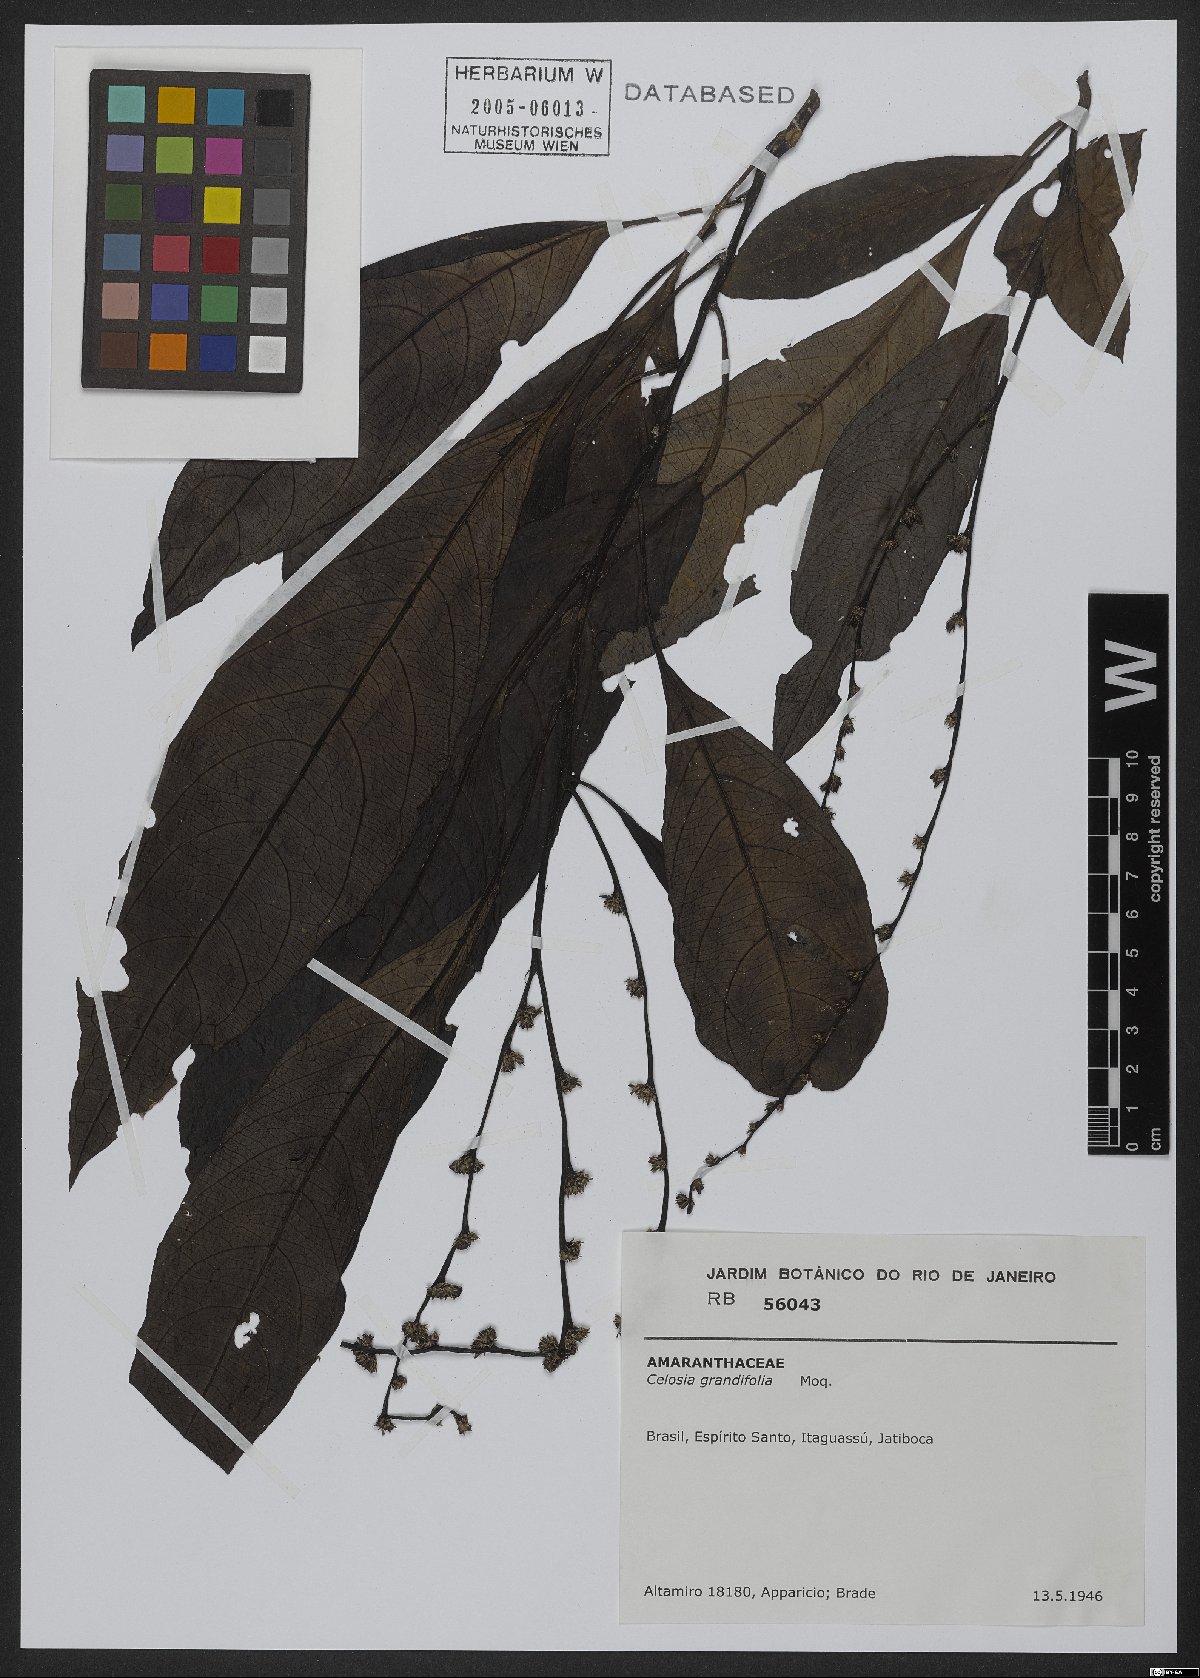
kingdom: Plantae
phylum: Tracheophyta
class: Magnoliopsida
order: Caryophyllales
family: Amaranthaceae
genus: Celosia
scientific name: Celosia grandifolia
